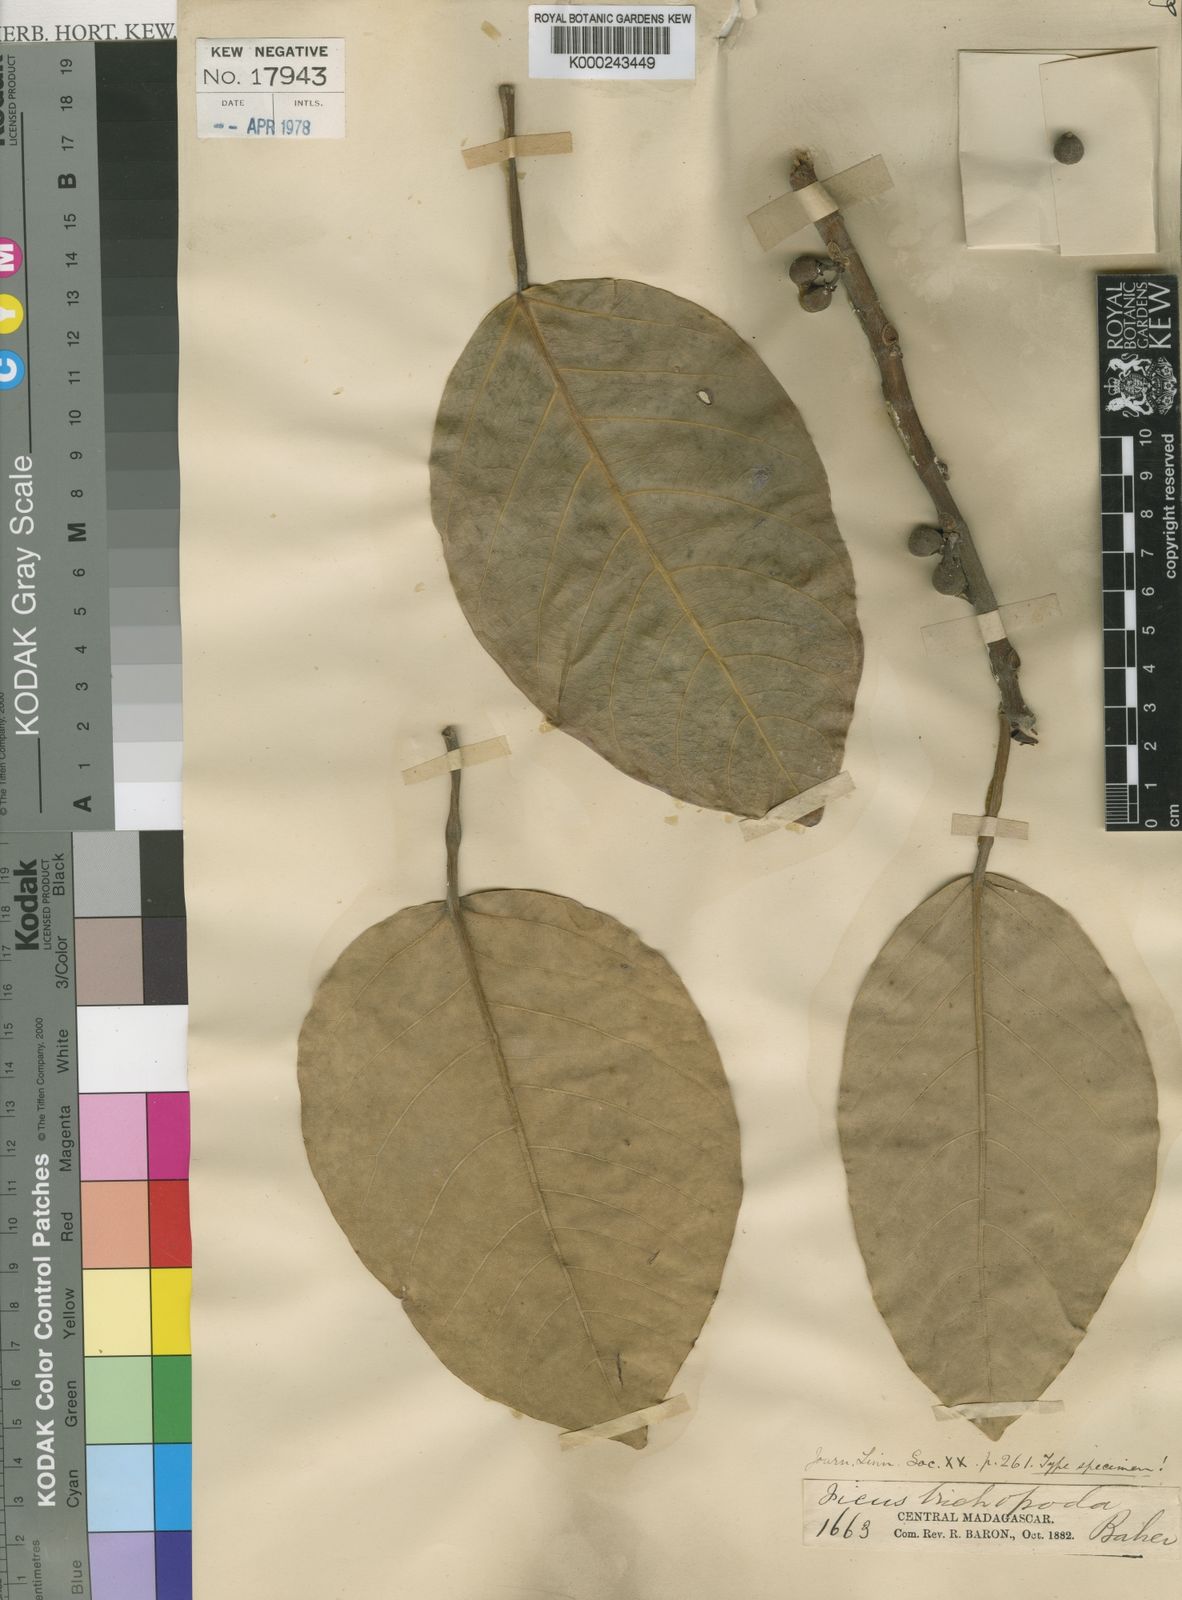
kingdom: Plantae
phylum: Tracheophyta
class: Magnoliopsida
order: Rosales
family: Moraceae
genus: Ficus
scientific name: Ficus trichopoda
